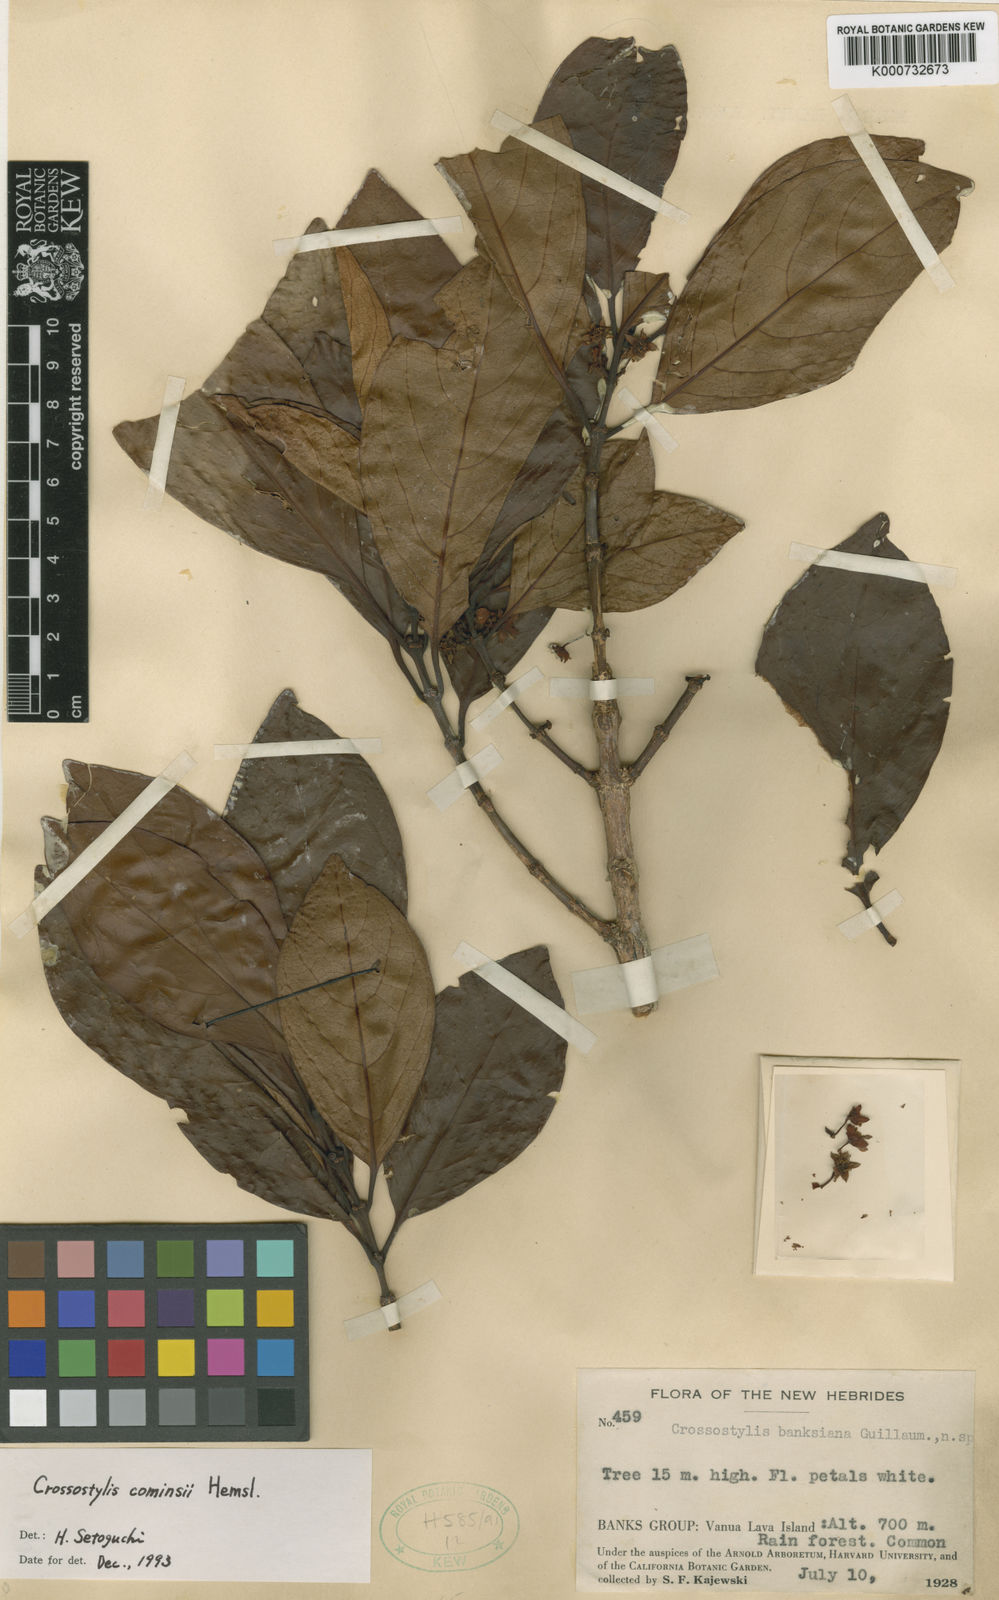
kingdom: Plantae
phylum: Tracheophyta
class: Magnoliopsida
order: Malpighiales
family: Rhizophoraceae
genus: Crossostylis
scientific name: Crossostylis cominsii
